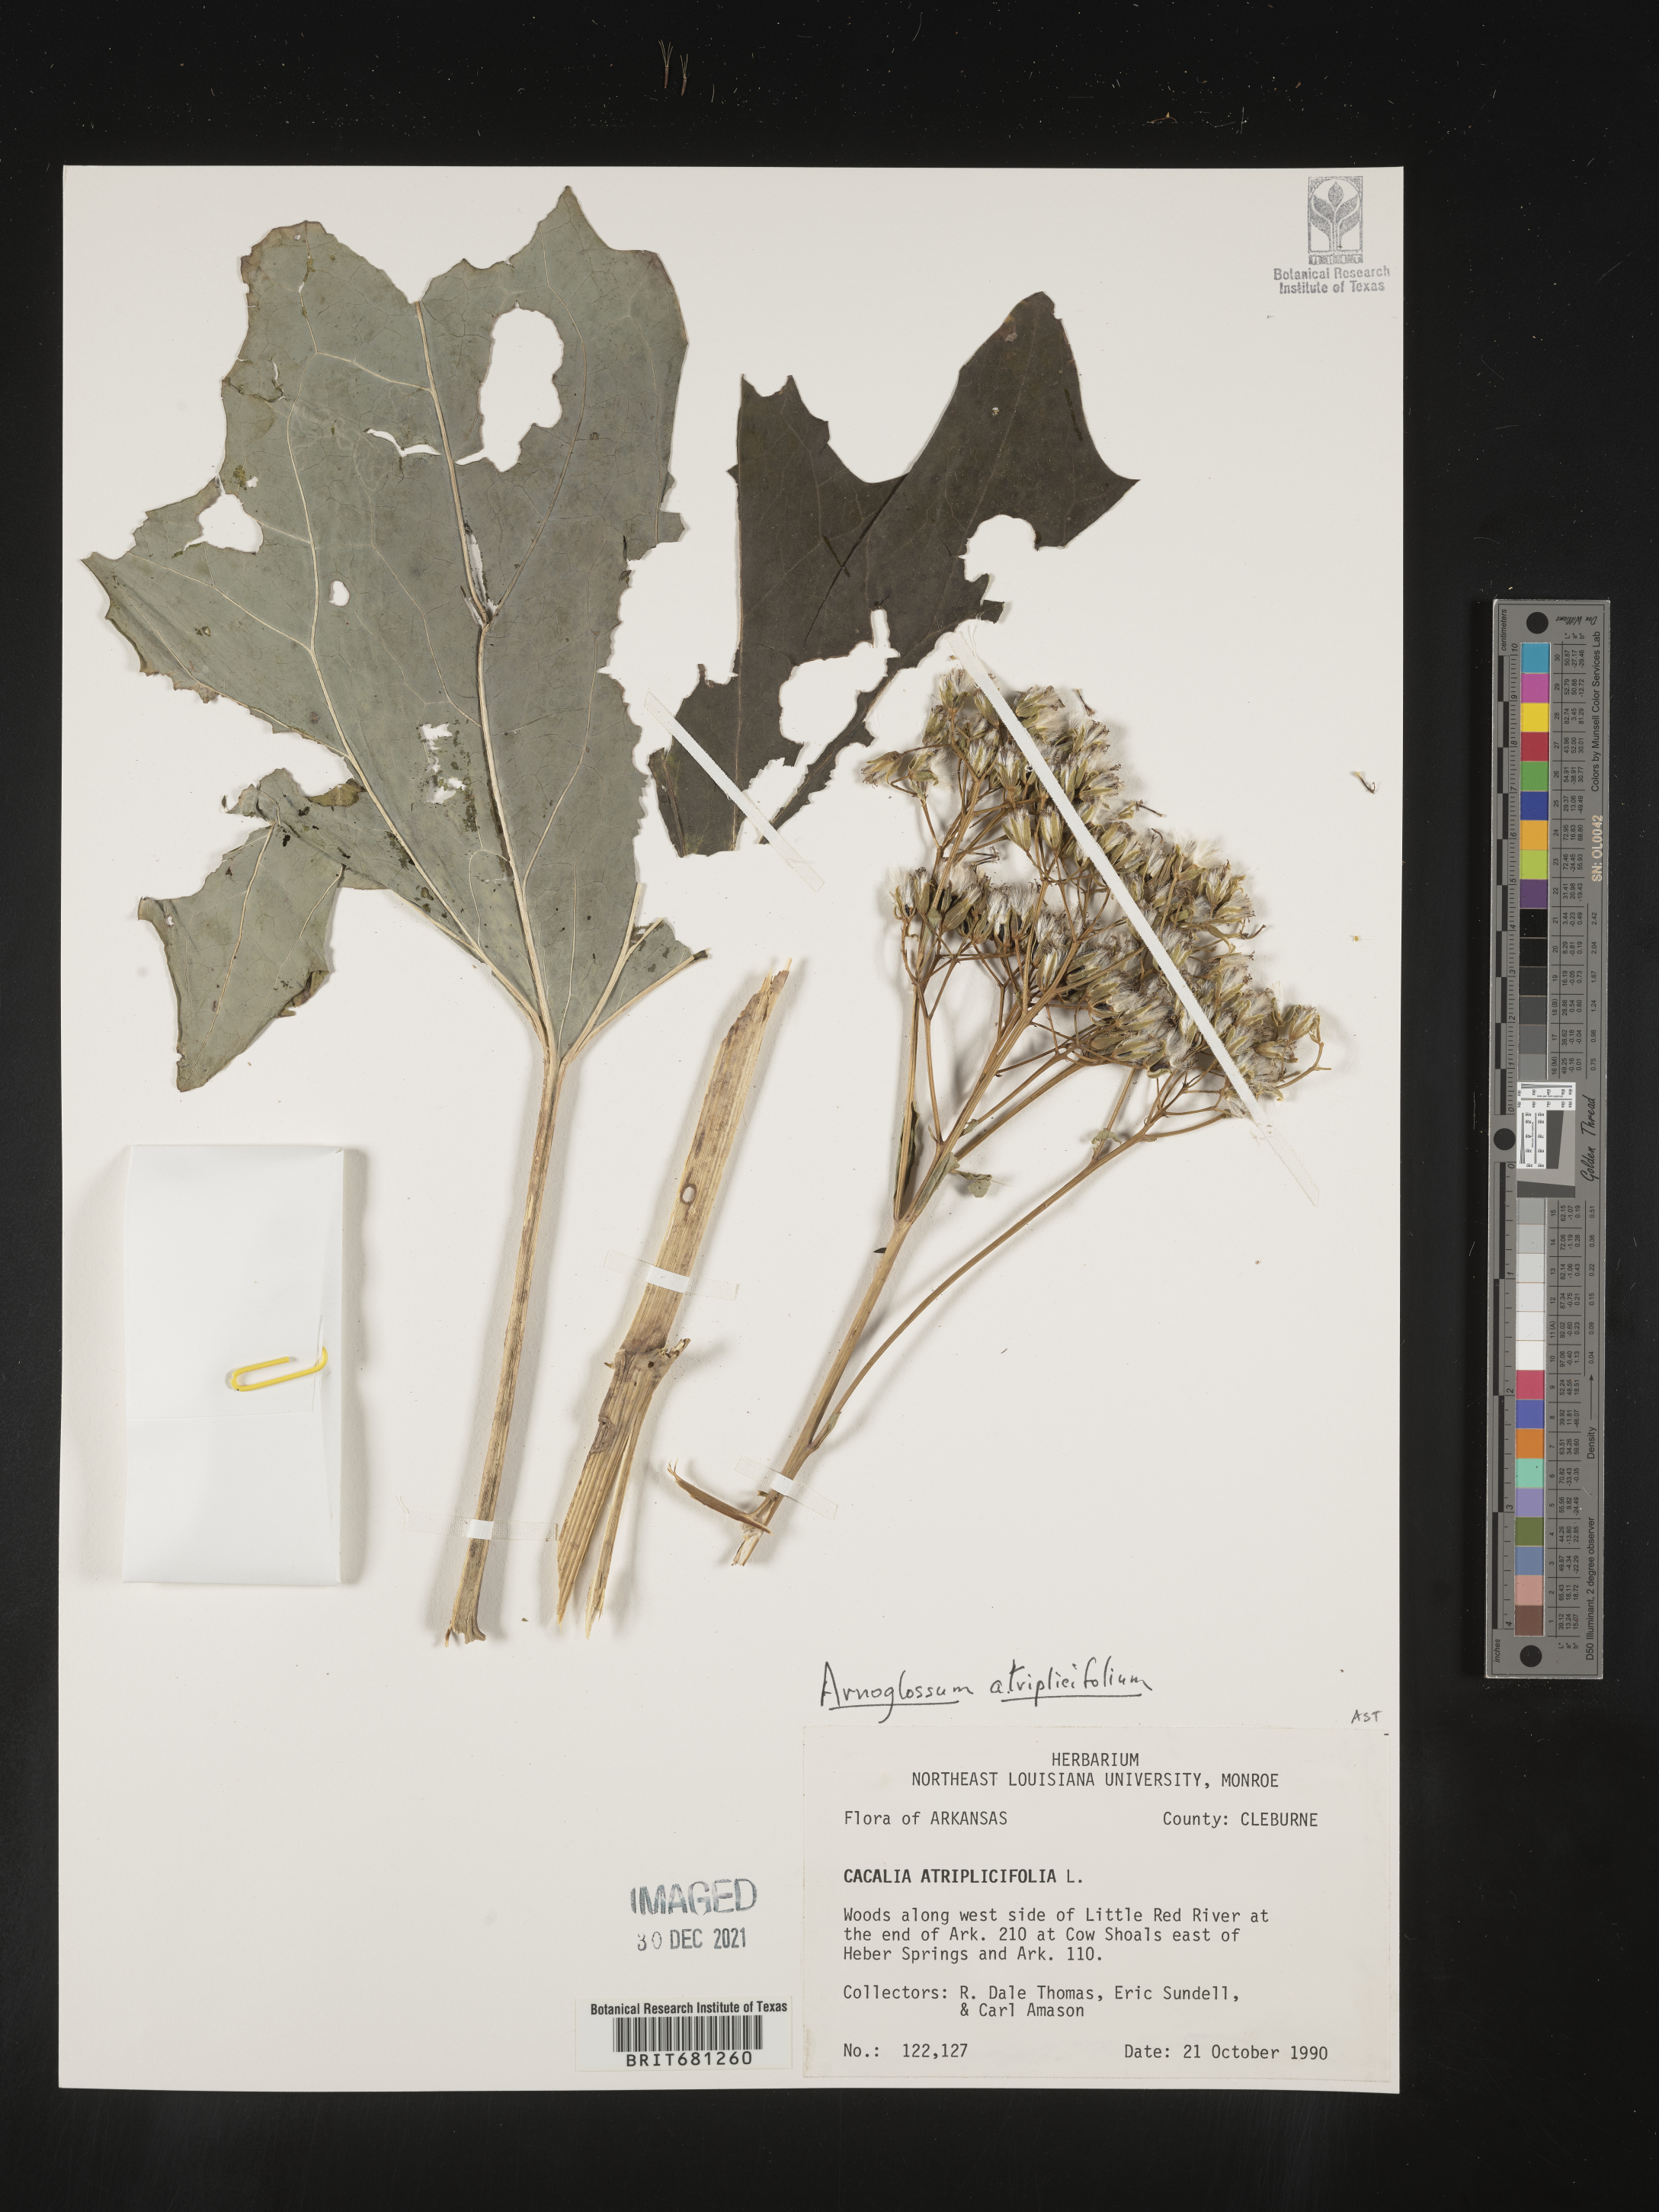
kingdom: Plantae
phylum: Tracheophyta
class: Magnoliopsida
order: Asterales
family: Asteraceae
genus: Arnoglossum
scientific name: Arnoglossum atriplicifolium
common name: Pale indian-plantain
